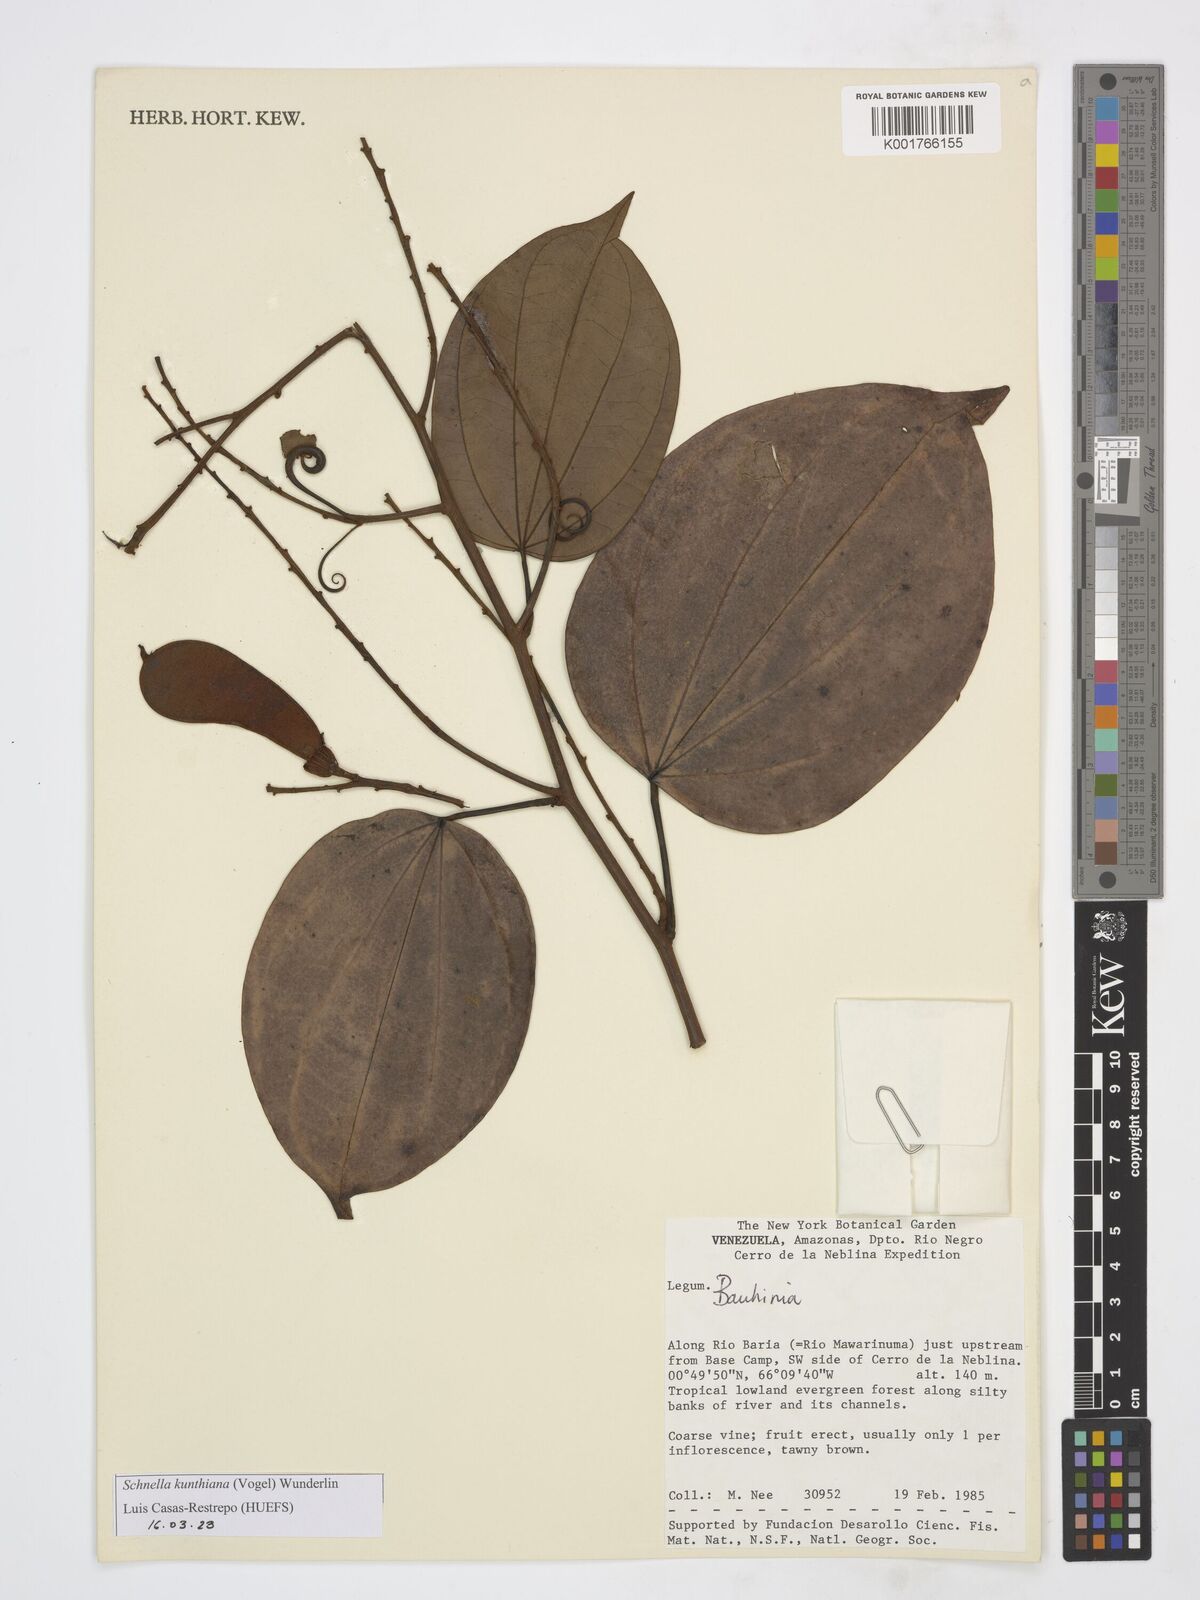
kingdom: Plantae
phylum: Tracheophyta
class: Magnoliopsida
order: Fabales
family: Fabaceae
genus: Schnella
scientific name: Schnella kunthiana
